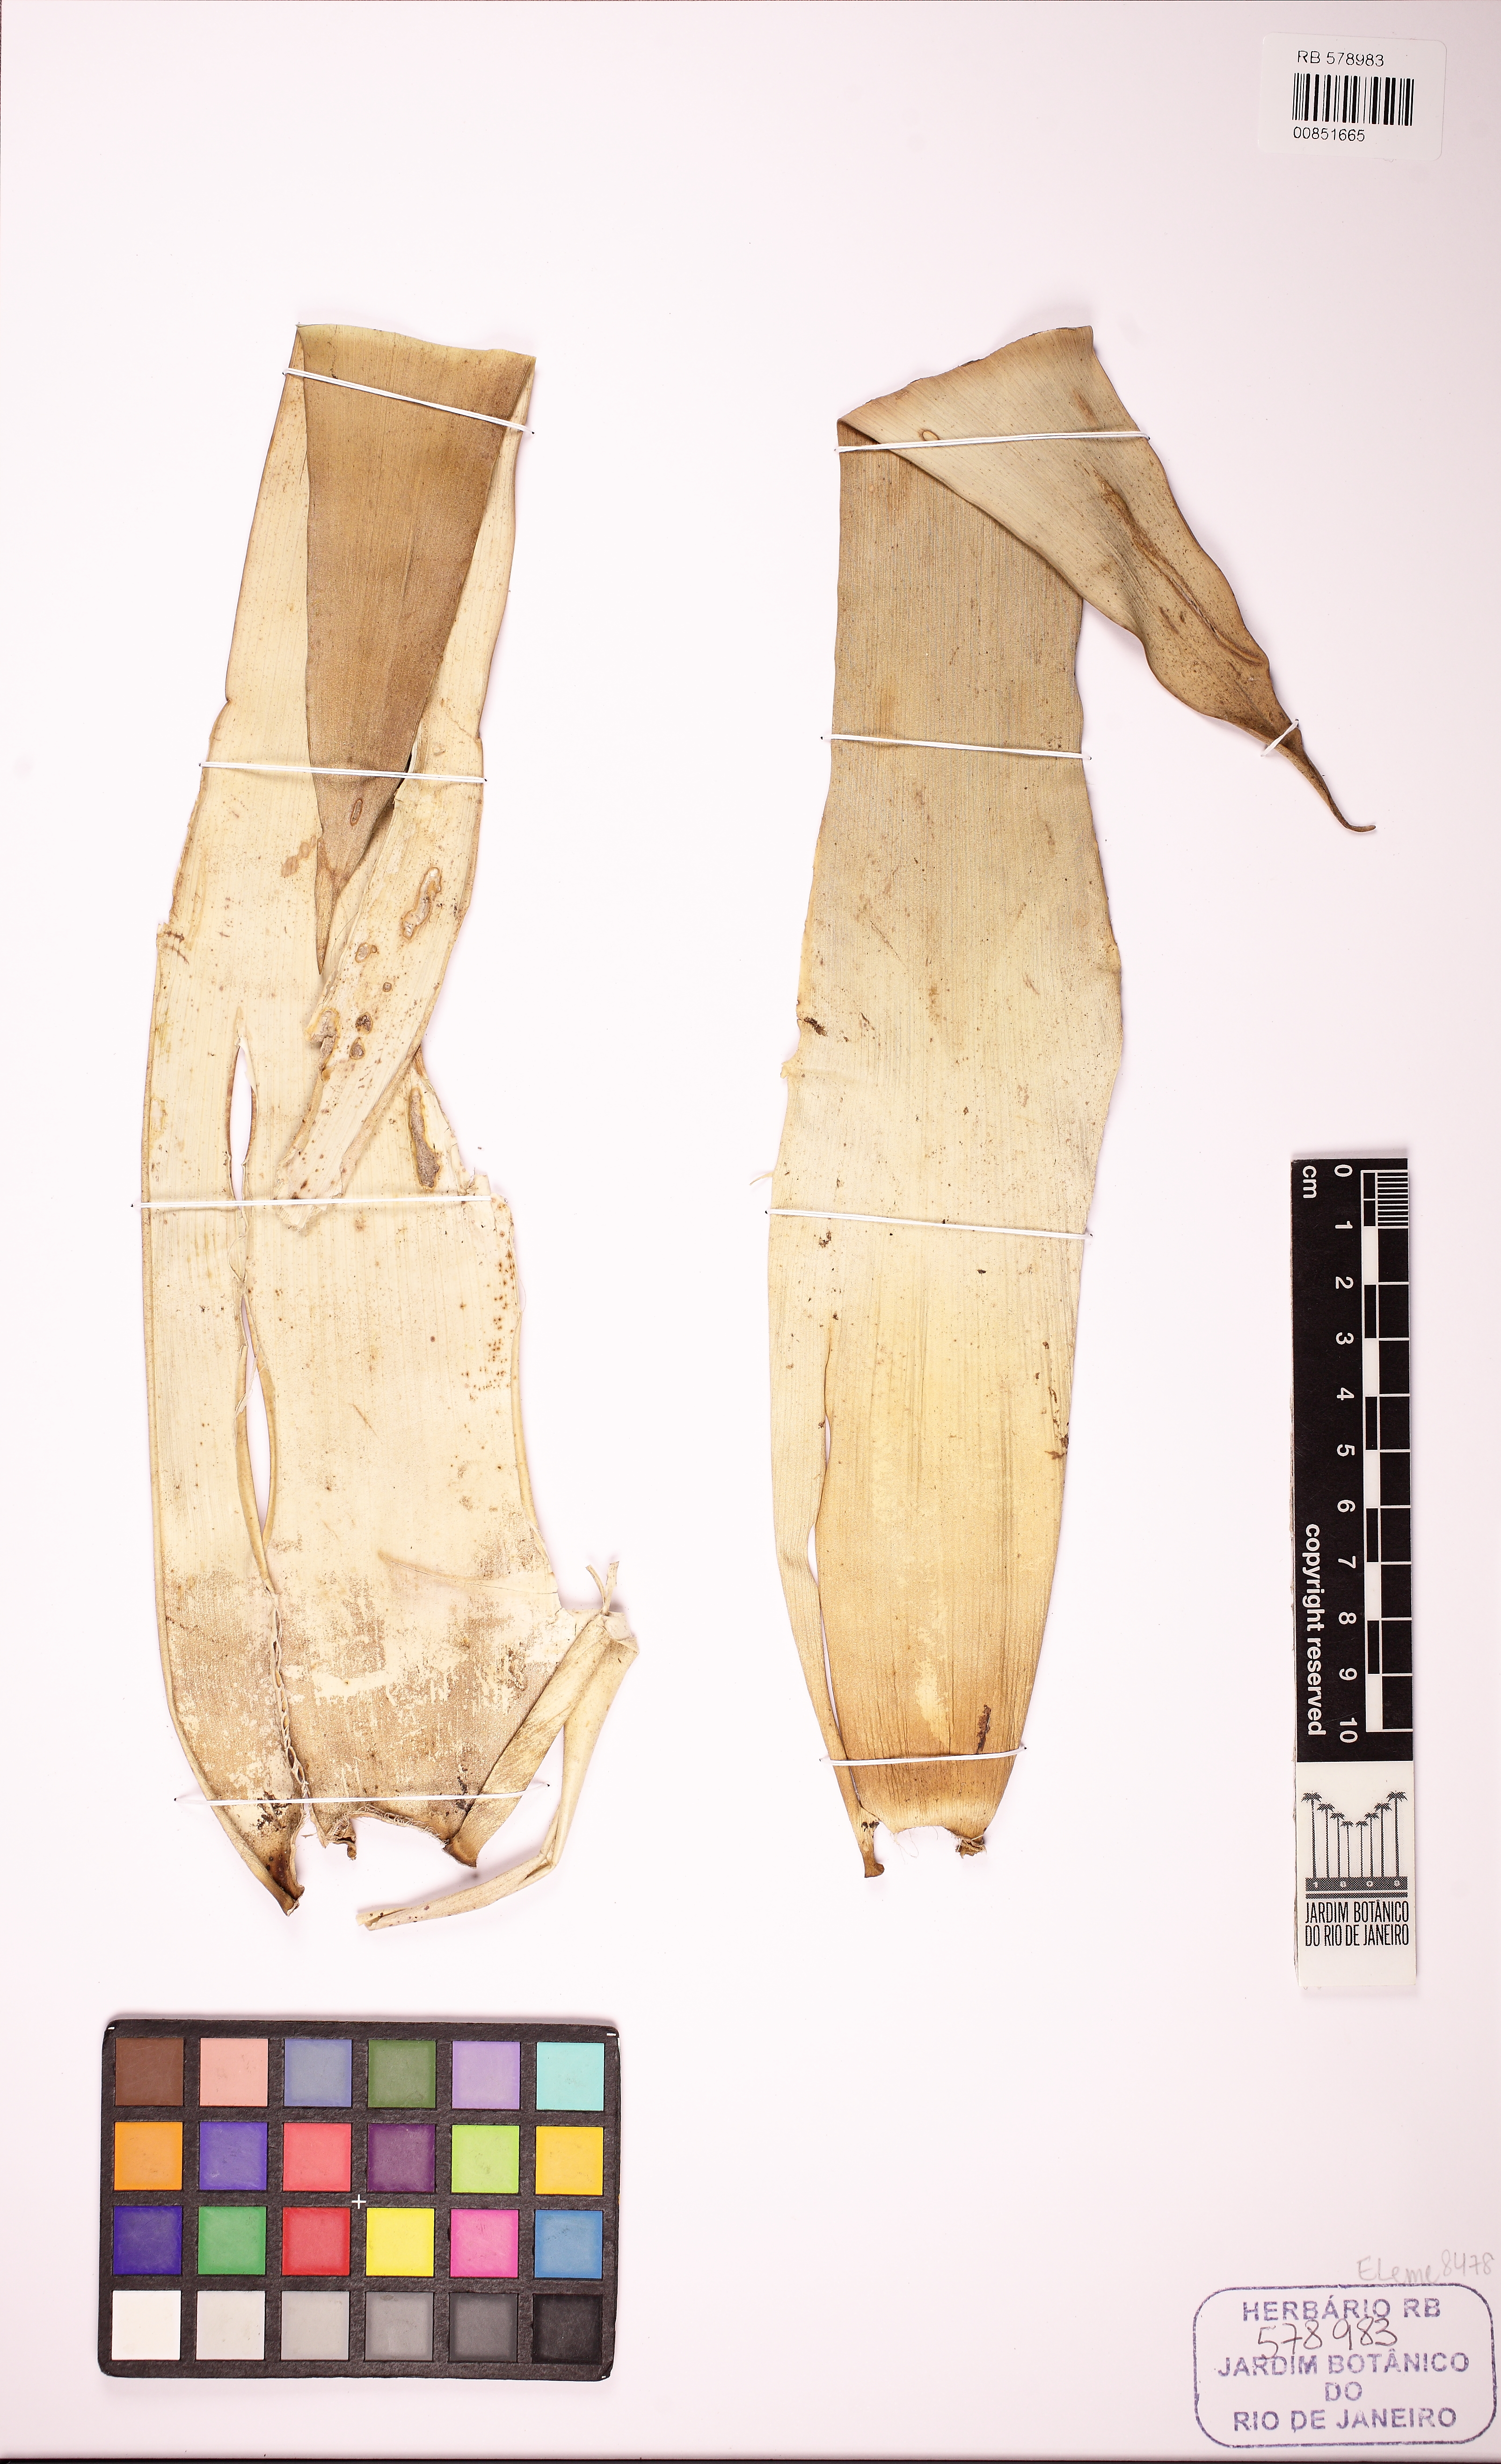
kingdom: Plantae
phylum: Tracheophyta
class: Liliopsida
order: Poales
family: Bromeliaceae
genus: Alcantarea
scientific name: Alcantarea compacta
